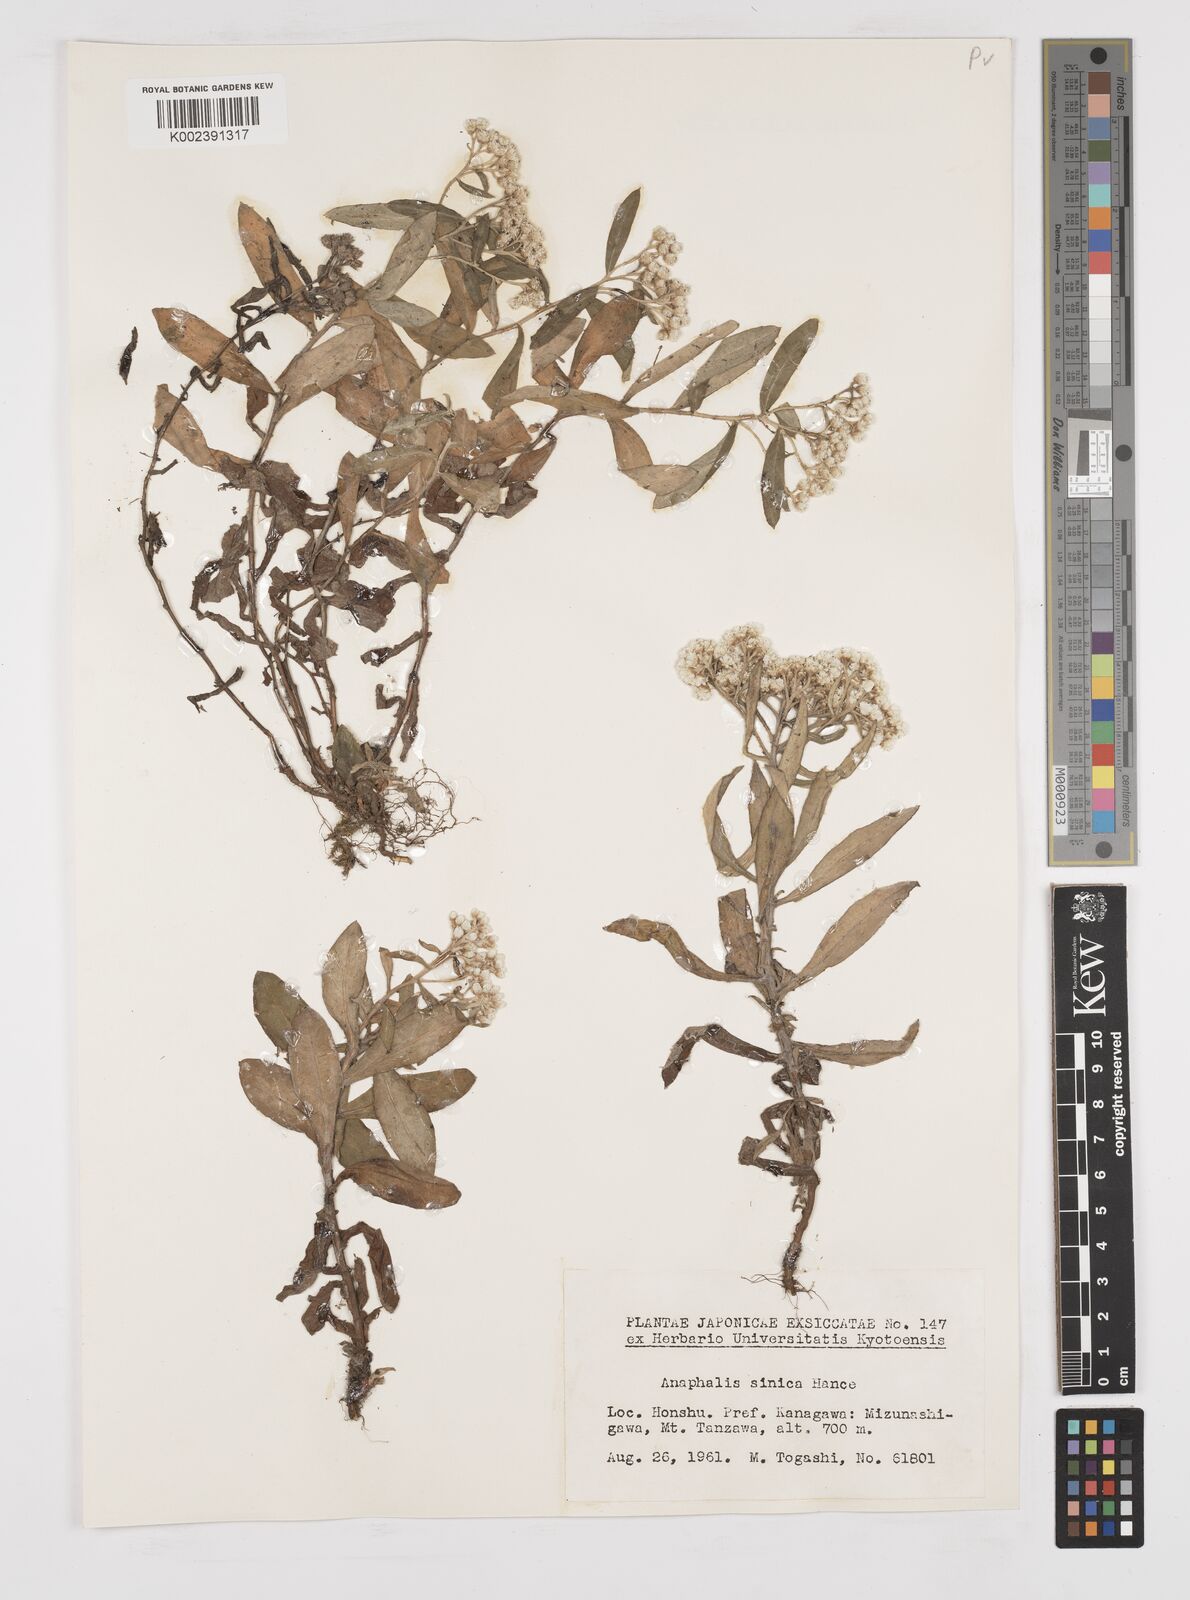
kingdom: Plantae
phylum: Tracheophyta
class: Magnoliopsida
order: Asterales
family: Asteraceae
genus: Anaphalis
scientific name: Anaphalis sinica
